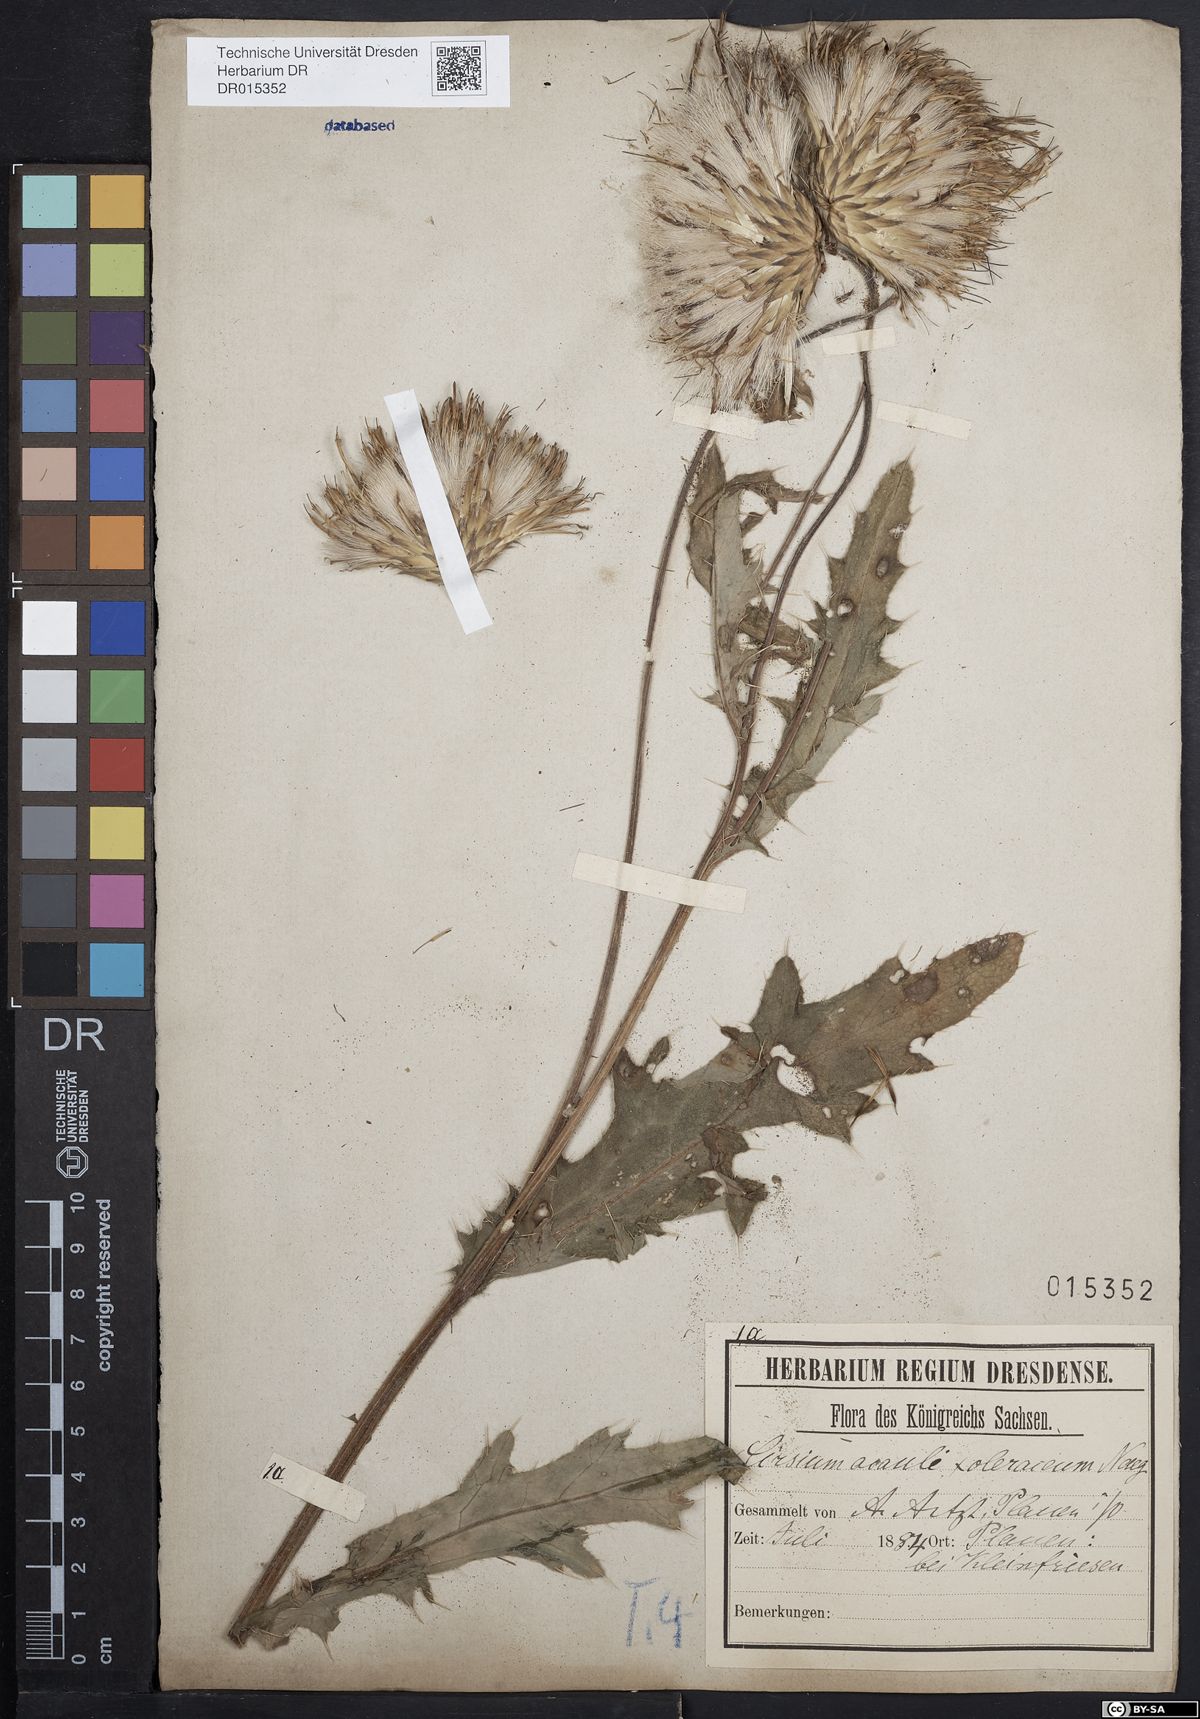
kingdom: Plantae
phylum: Tracheophyta
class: Magnoliopsida
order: Asterales
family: Asteraceae
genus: Cirsium
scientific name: Cirsium rigens
